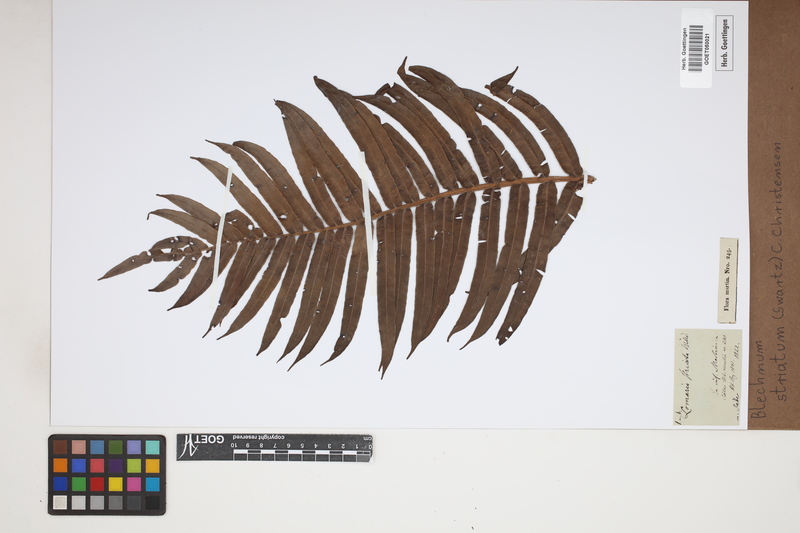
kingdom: Plantae
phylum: Tracheophyta
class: Polypodiopsida
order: Polypodiales
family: Blechnaceae
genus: Telmatoblechnum
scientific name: Telmatoblechnum indicum
